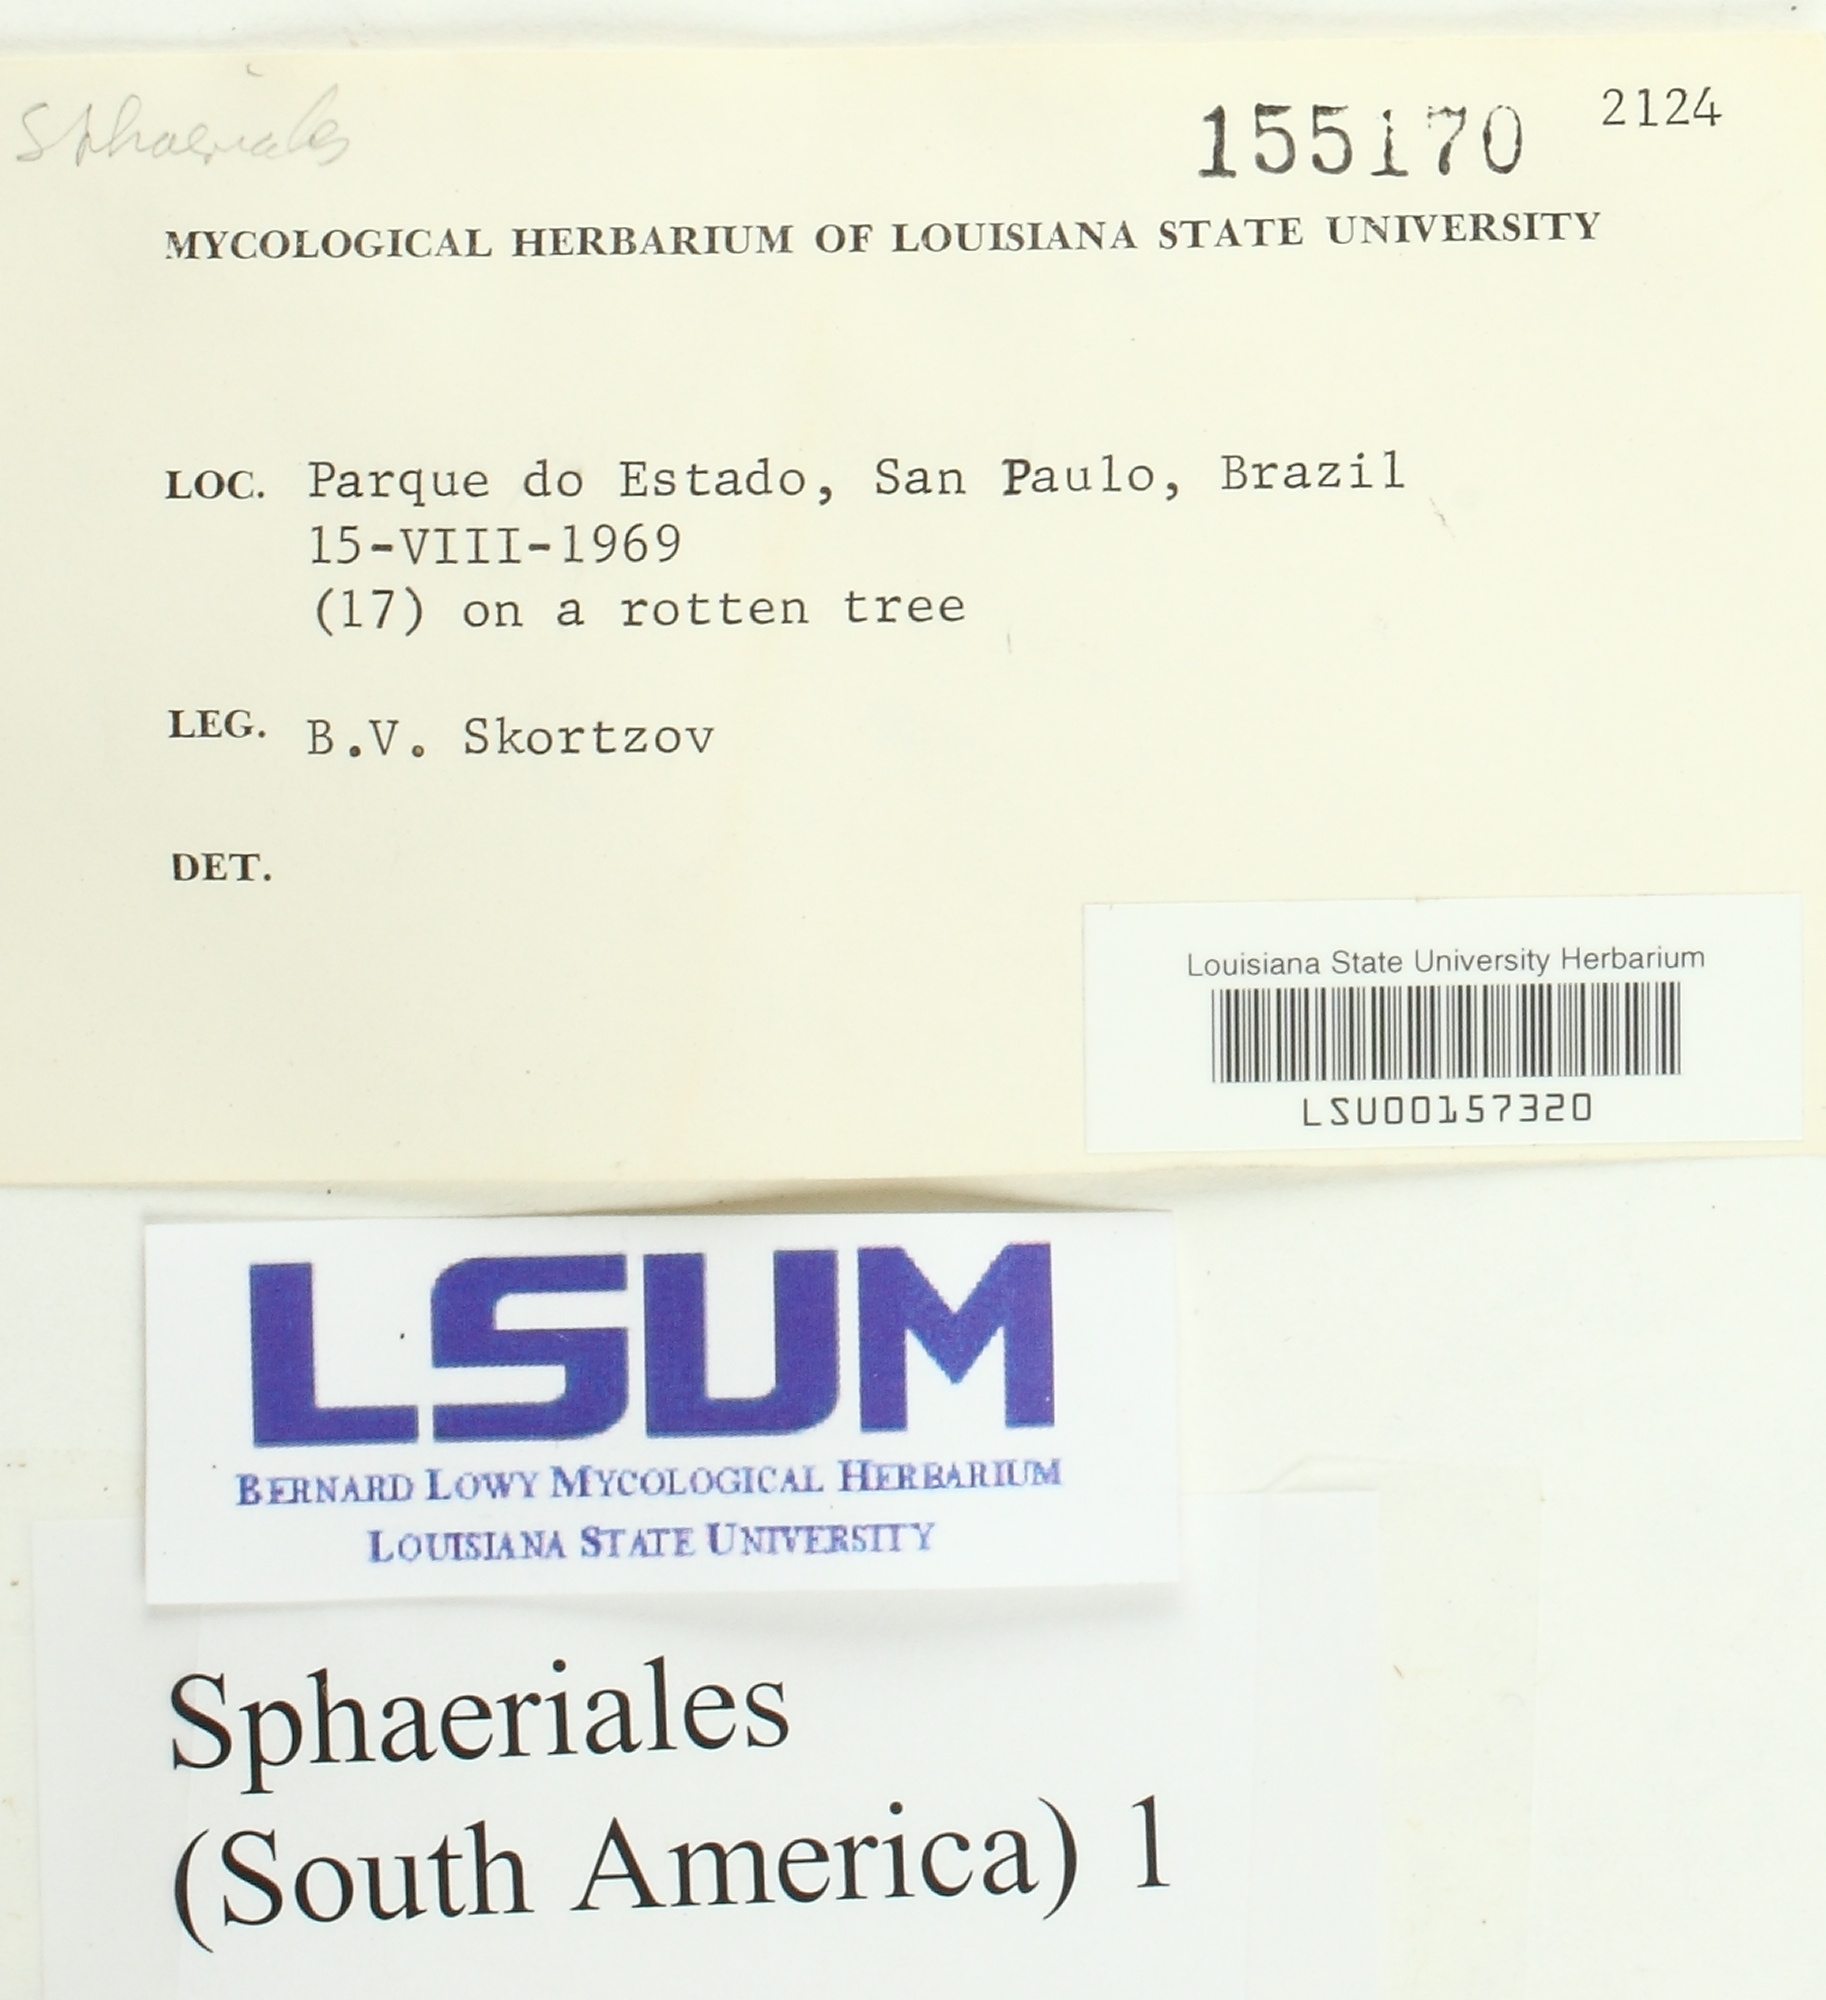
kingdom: Fungi
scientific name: Fungi
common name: Fungi
